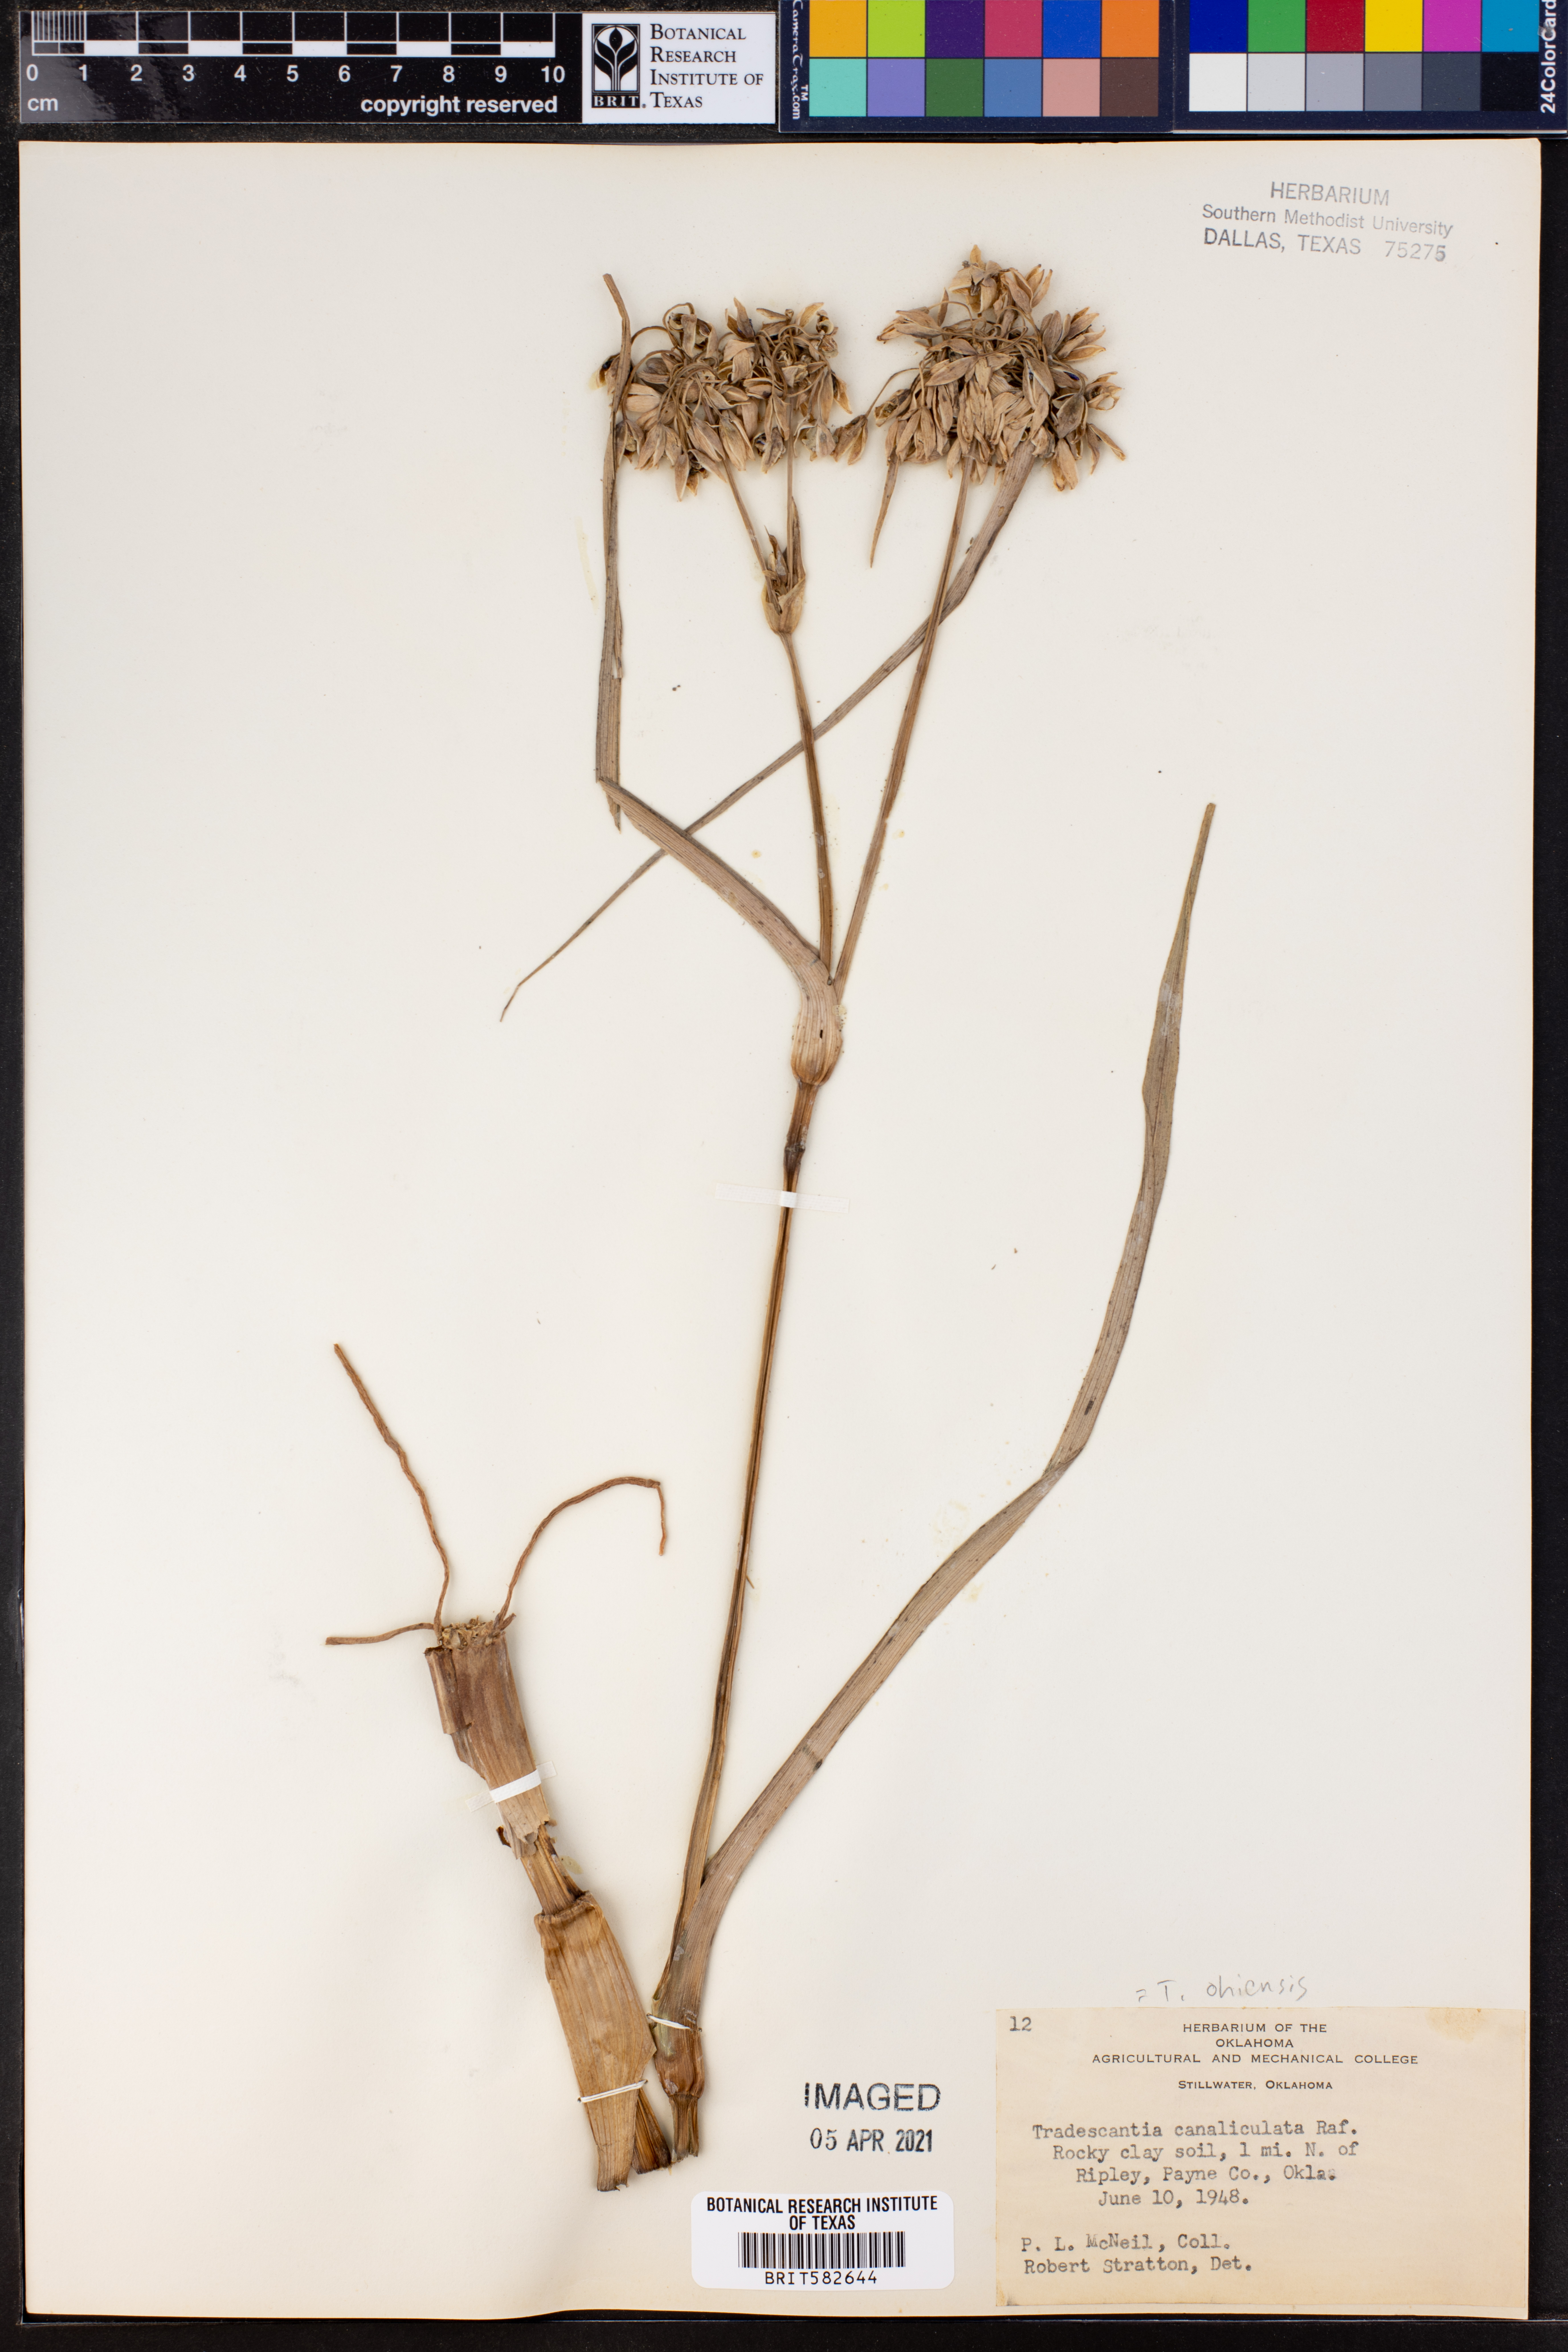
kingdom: Plantae
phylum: Tracheophyta
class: Liliopsida
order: Commelinales
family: Commelinaceae
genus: Tradescantia
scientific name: Tradescantia ohiensis
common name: Ohio spiderwort
